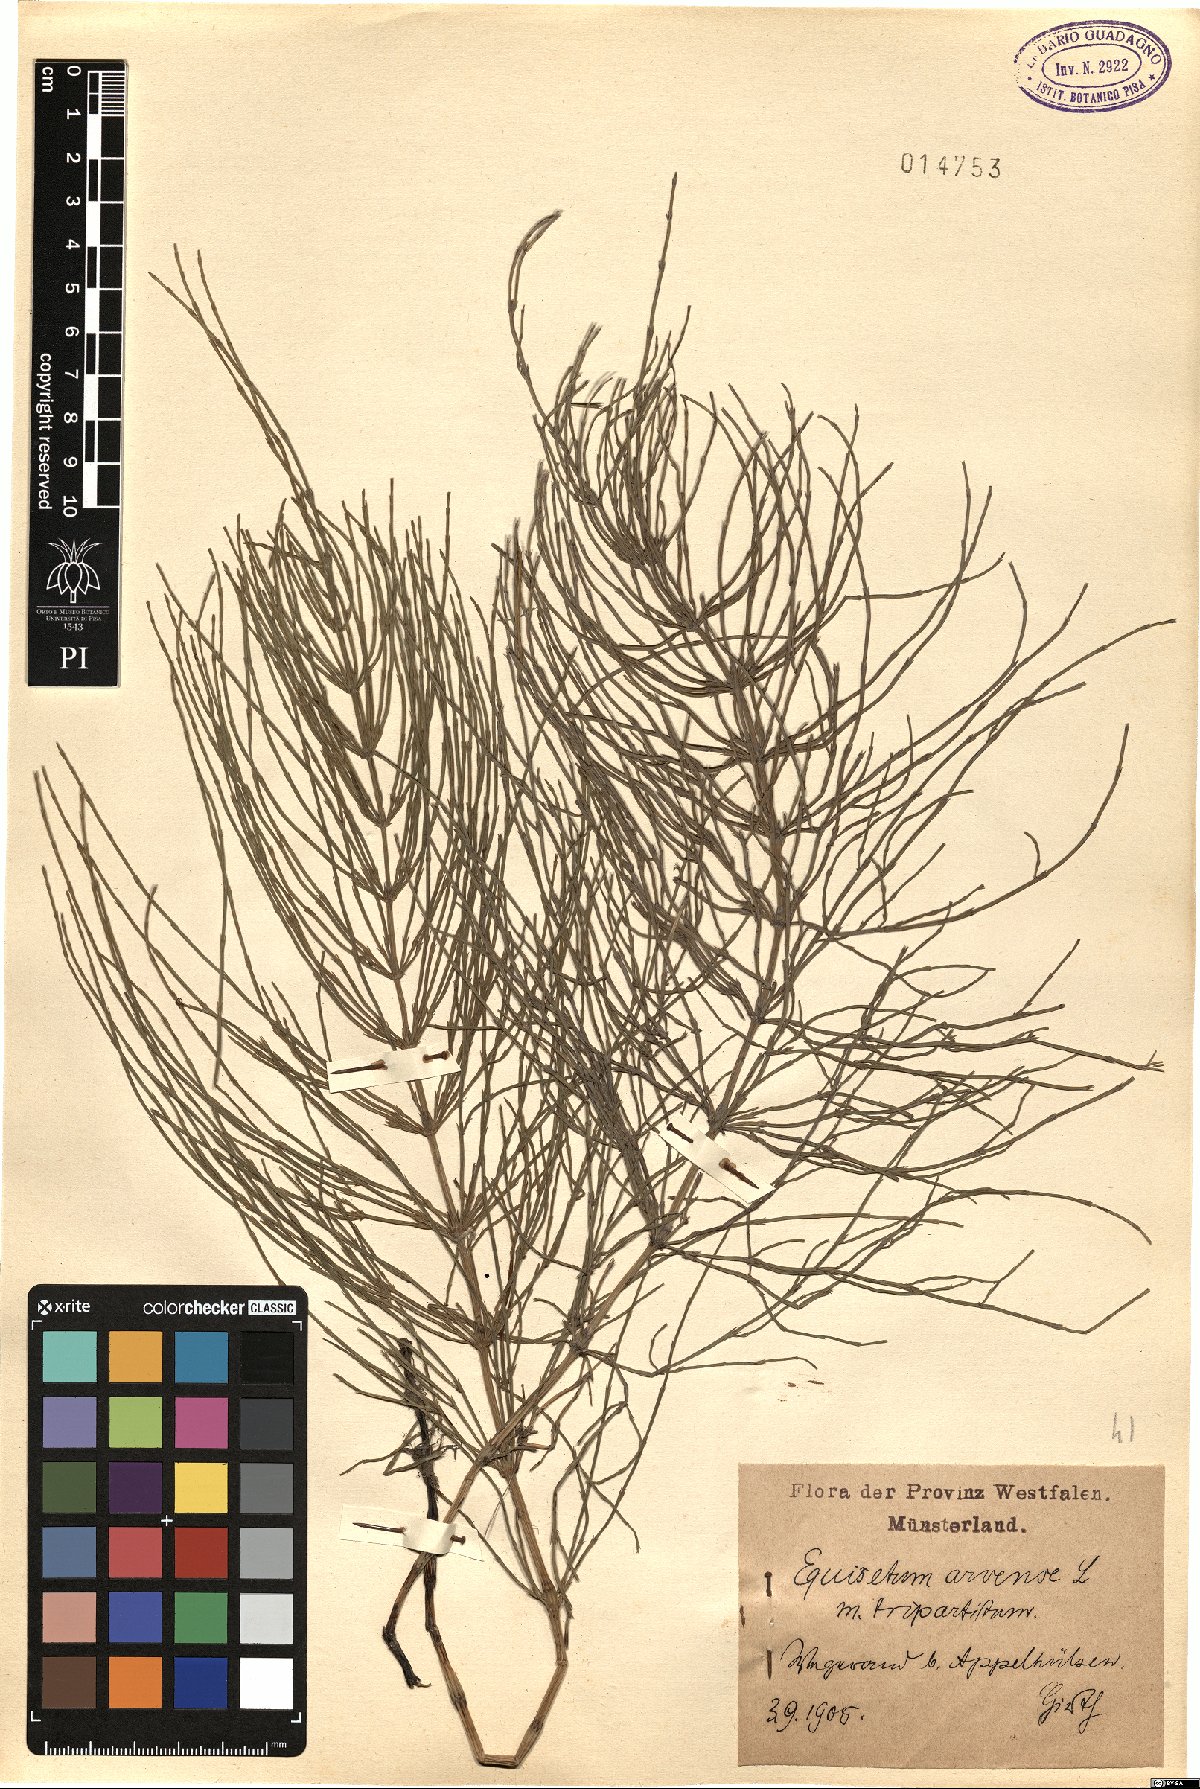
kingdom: Plantae
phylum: Tracheophyta
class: Polypodiopsida
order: Equisetales
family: Equisetaceae
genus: Equisetum
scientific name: Equisetum arvense
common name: Field horsetail
